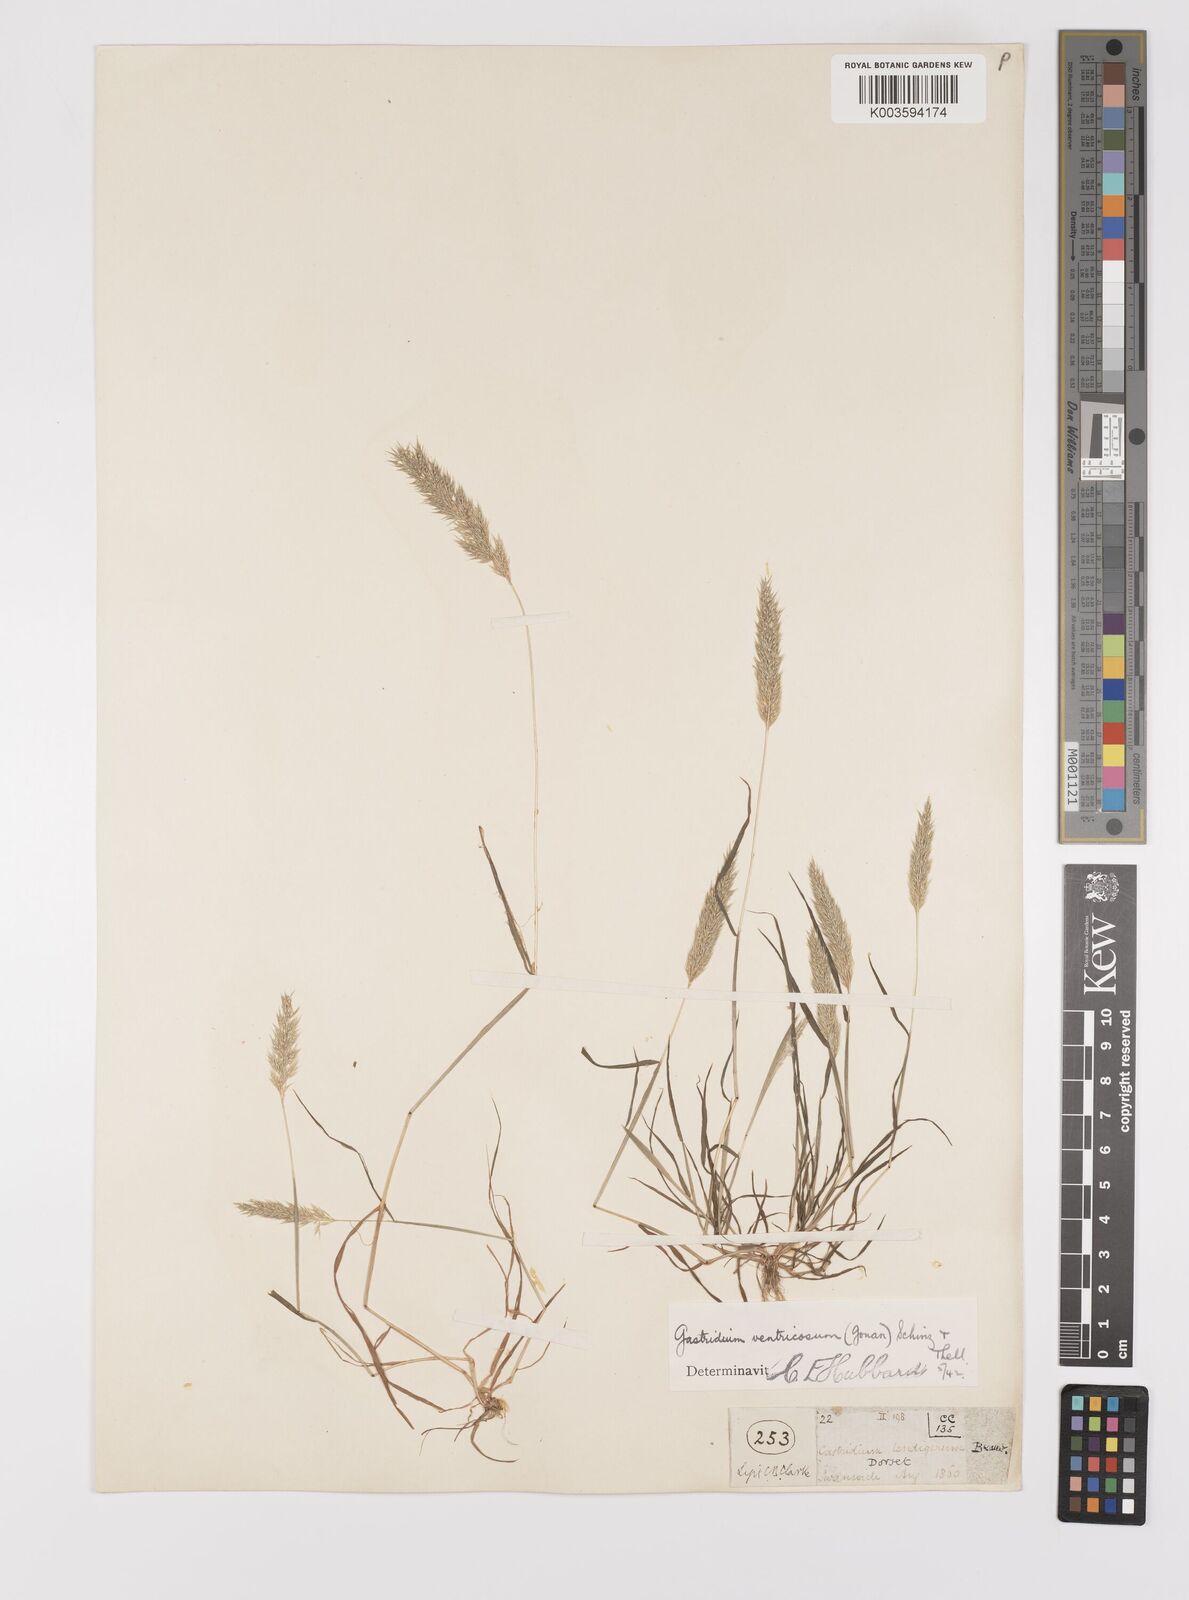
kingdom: Plantae
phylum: Tracheophyta
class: Liliopsida
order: Poales
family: Poaceae
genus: Gastridium
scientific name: Gastridium ventricosum
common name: Nit-grass
